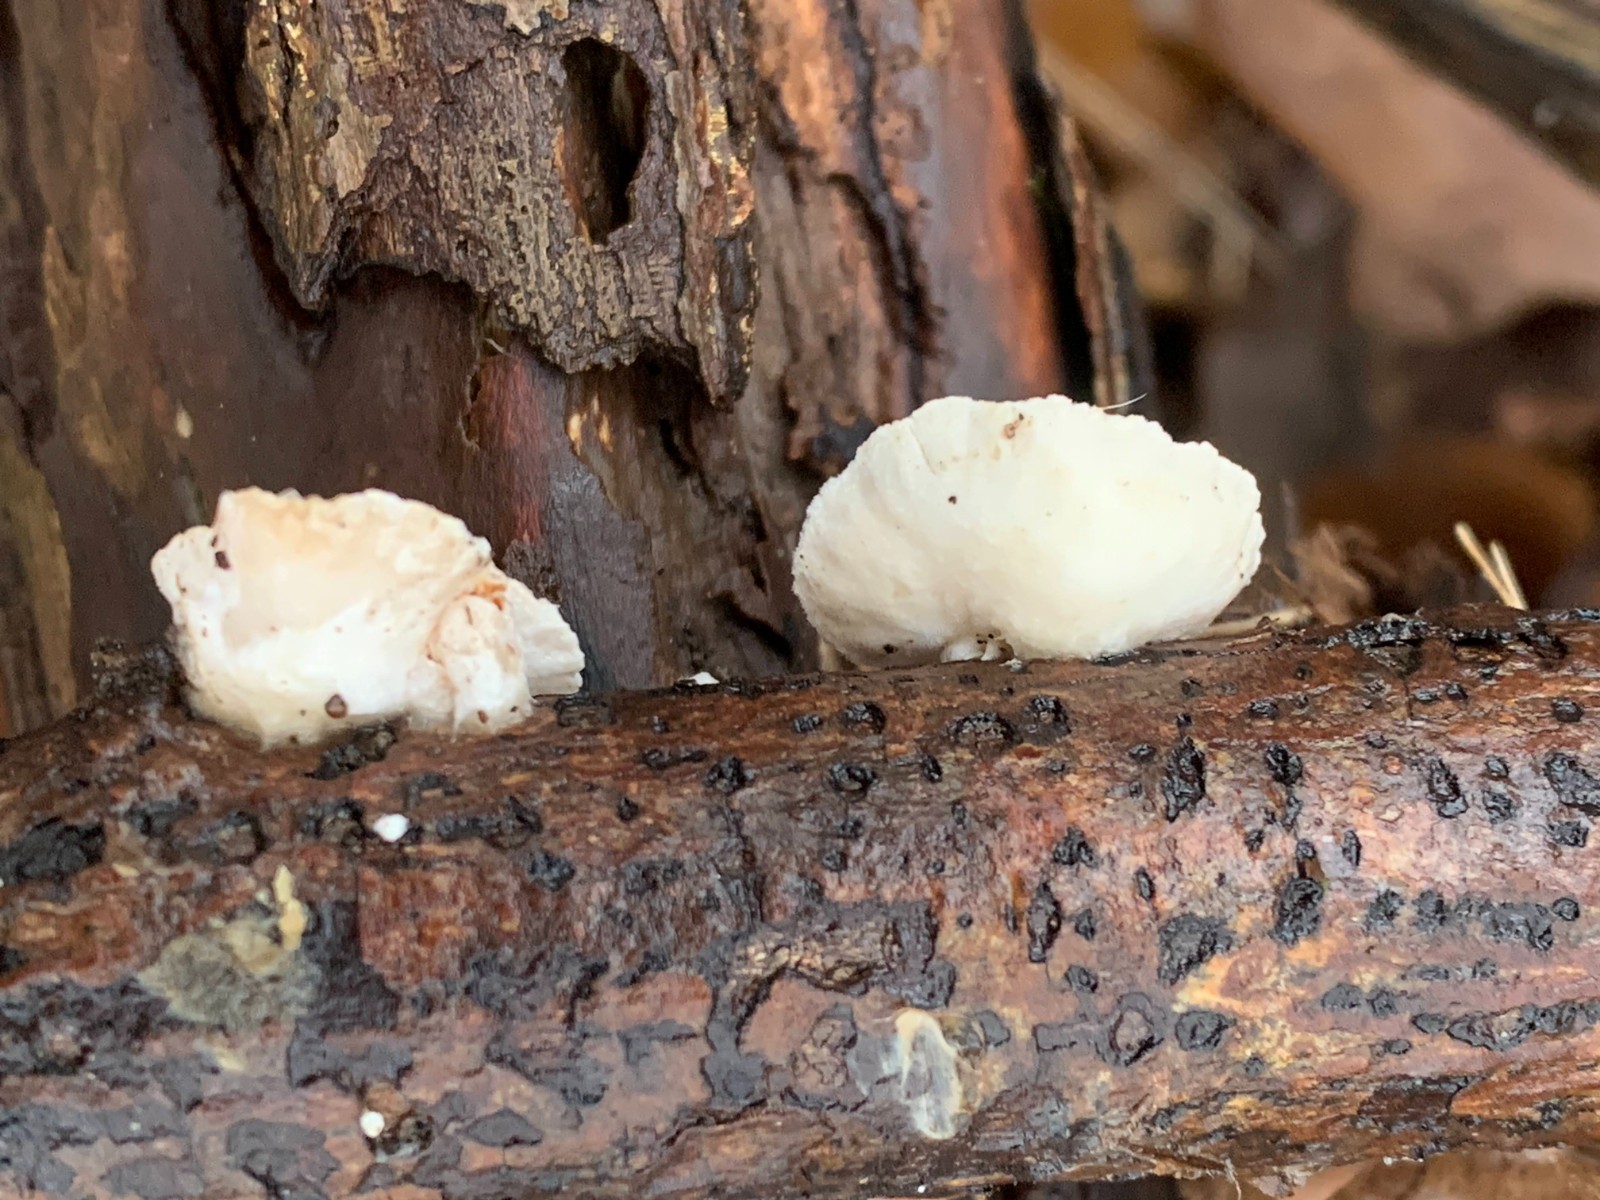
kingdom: Fungi
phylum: Basidiomycota
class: Agaricomycetes
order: Agaricales
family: Crepidotaceae
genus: Crepidotus
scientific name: Crepidotus cesatii
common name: almindelig muslingesvamp
